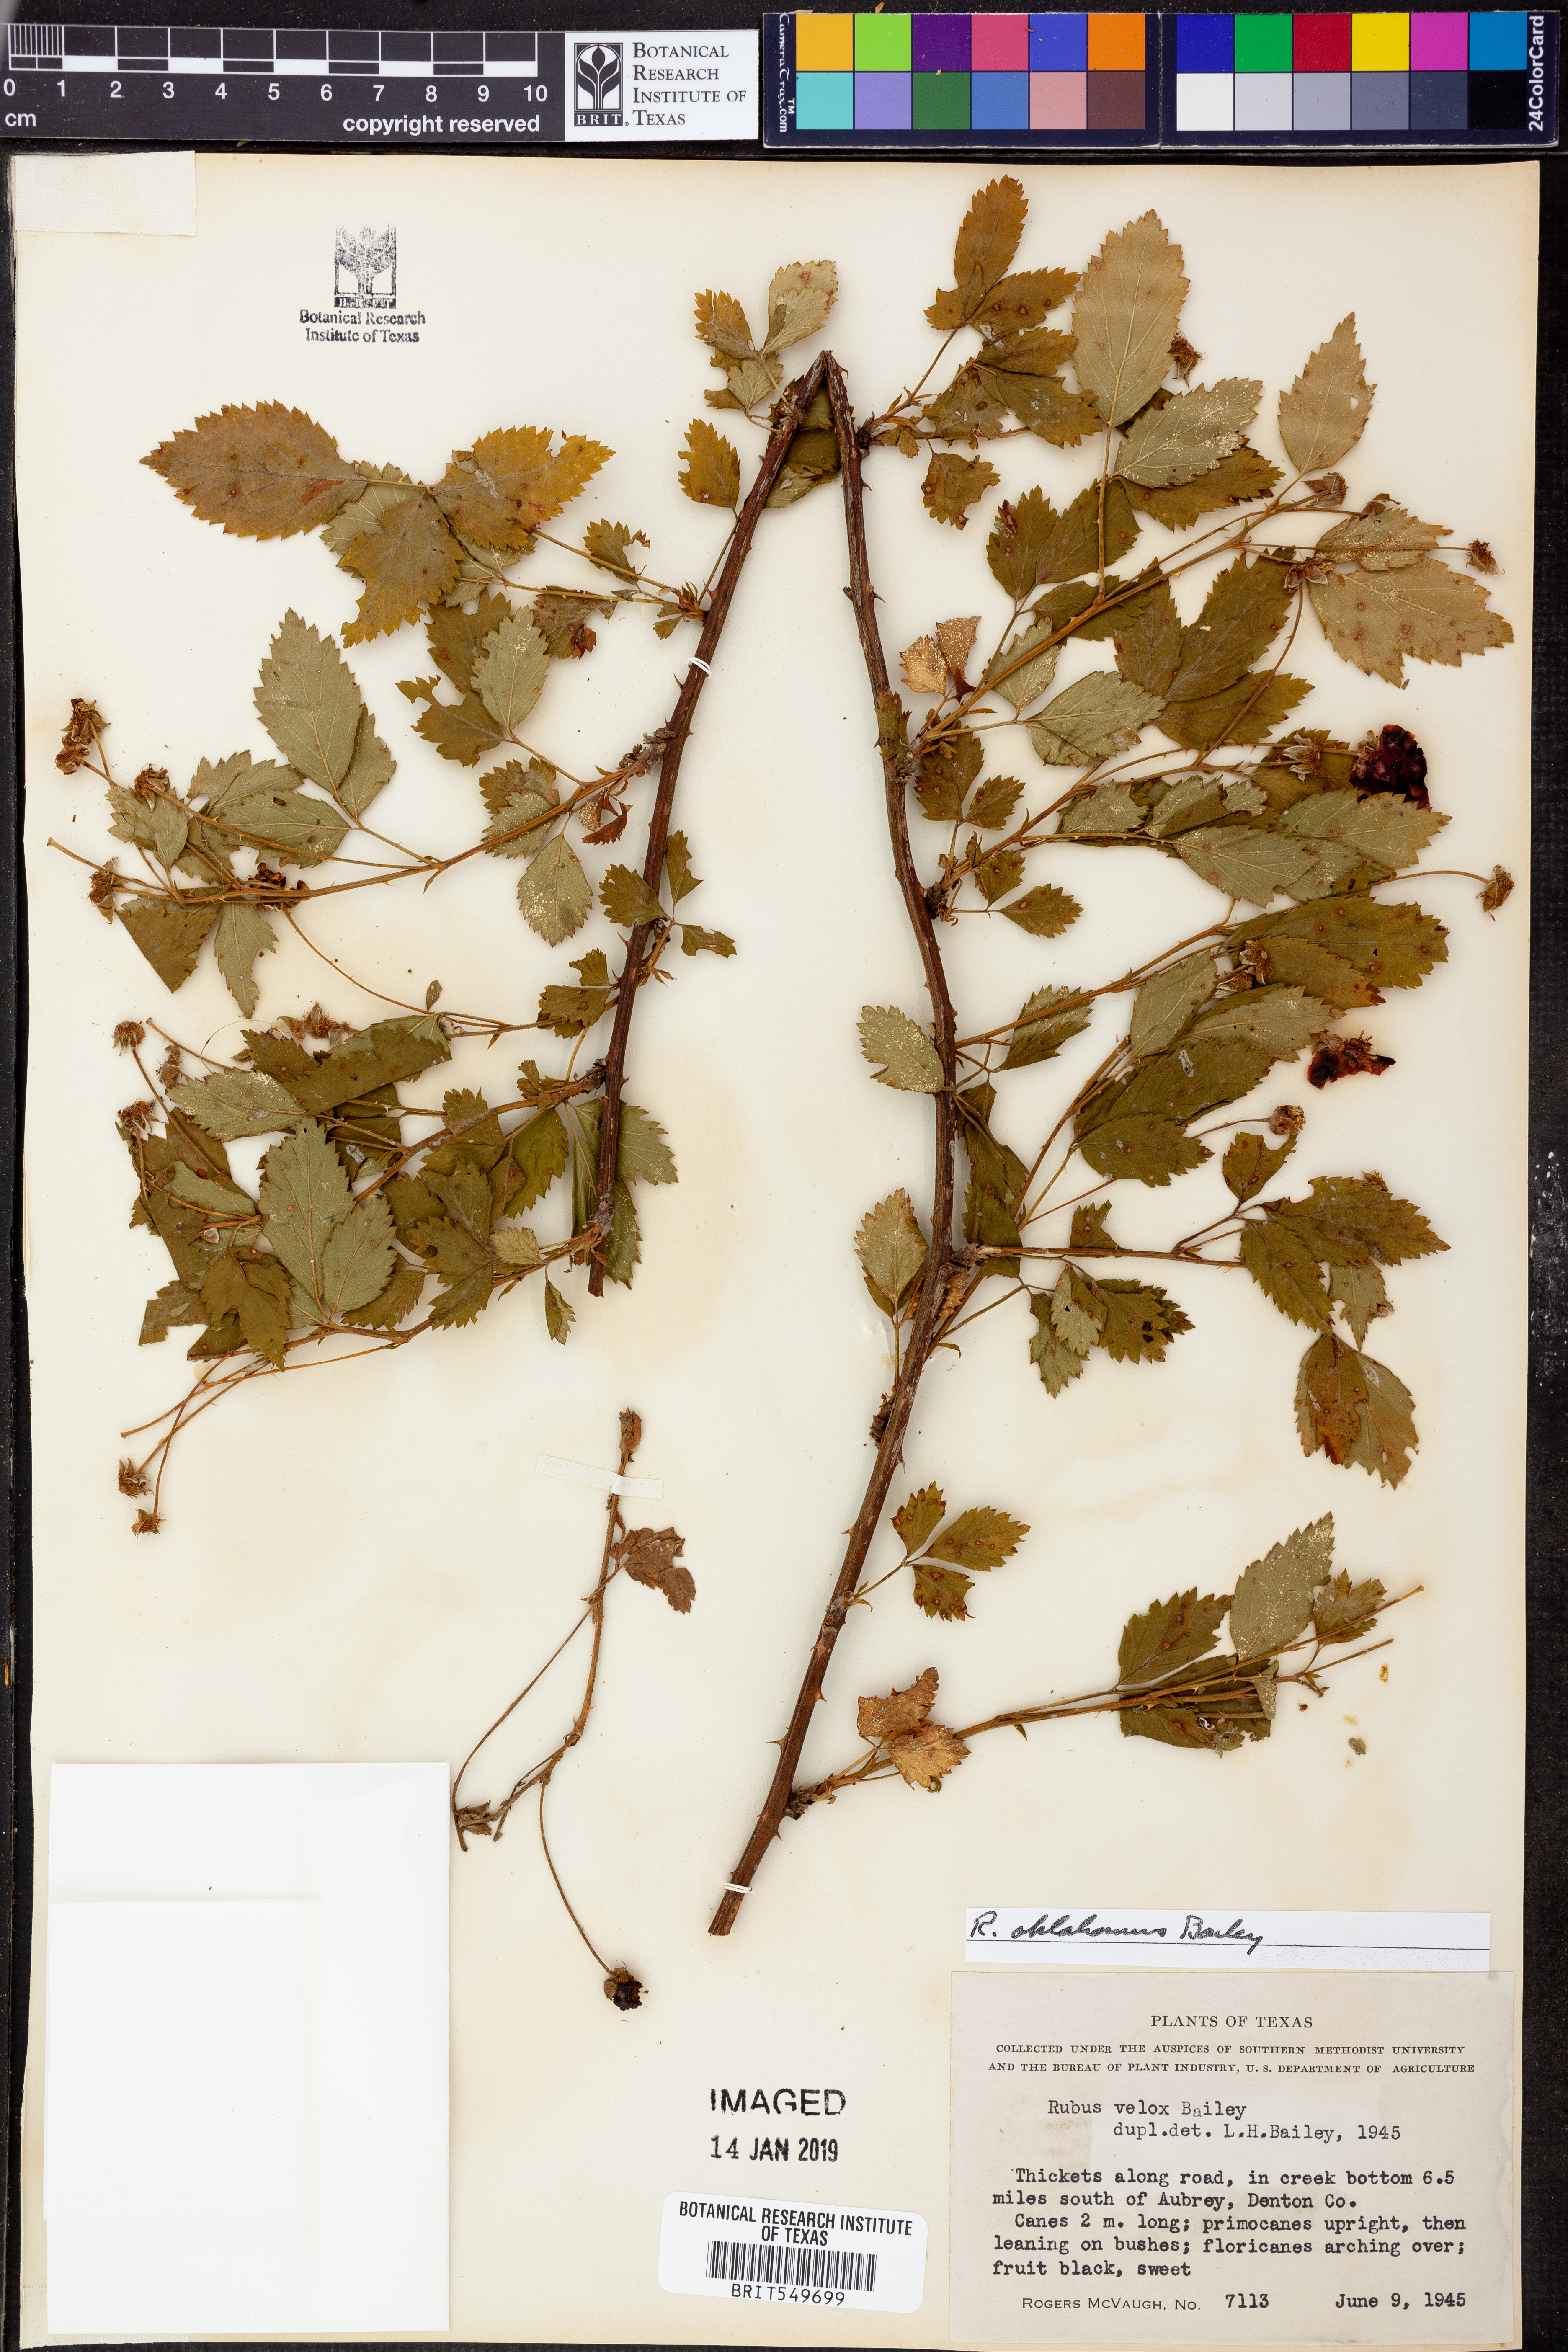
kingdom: Plantae
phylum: Tracheophyta
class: Magnoliopsida
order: Rosales
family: Rosaceae
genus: Rubus
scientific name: Rubus oklahomus
